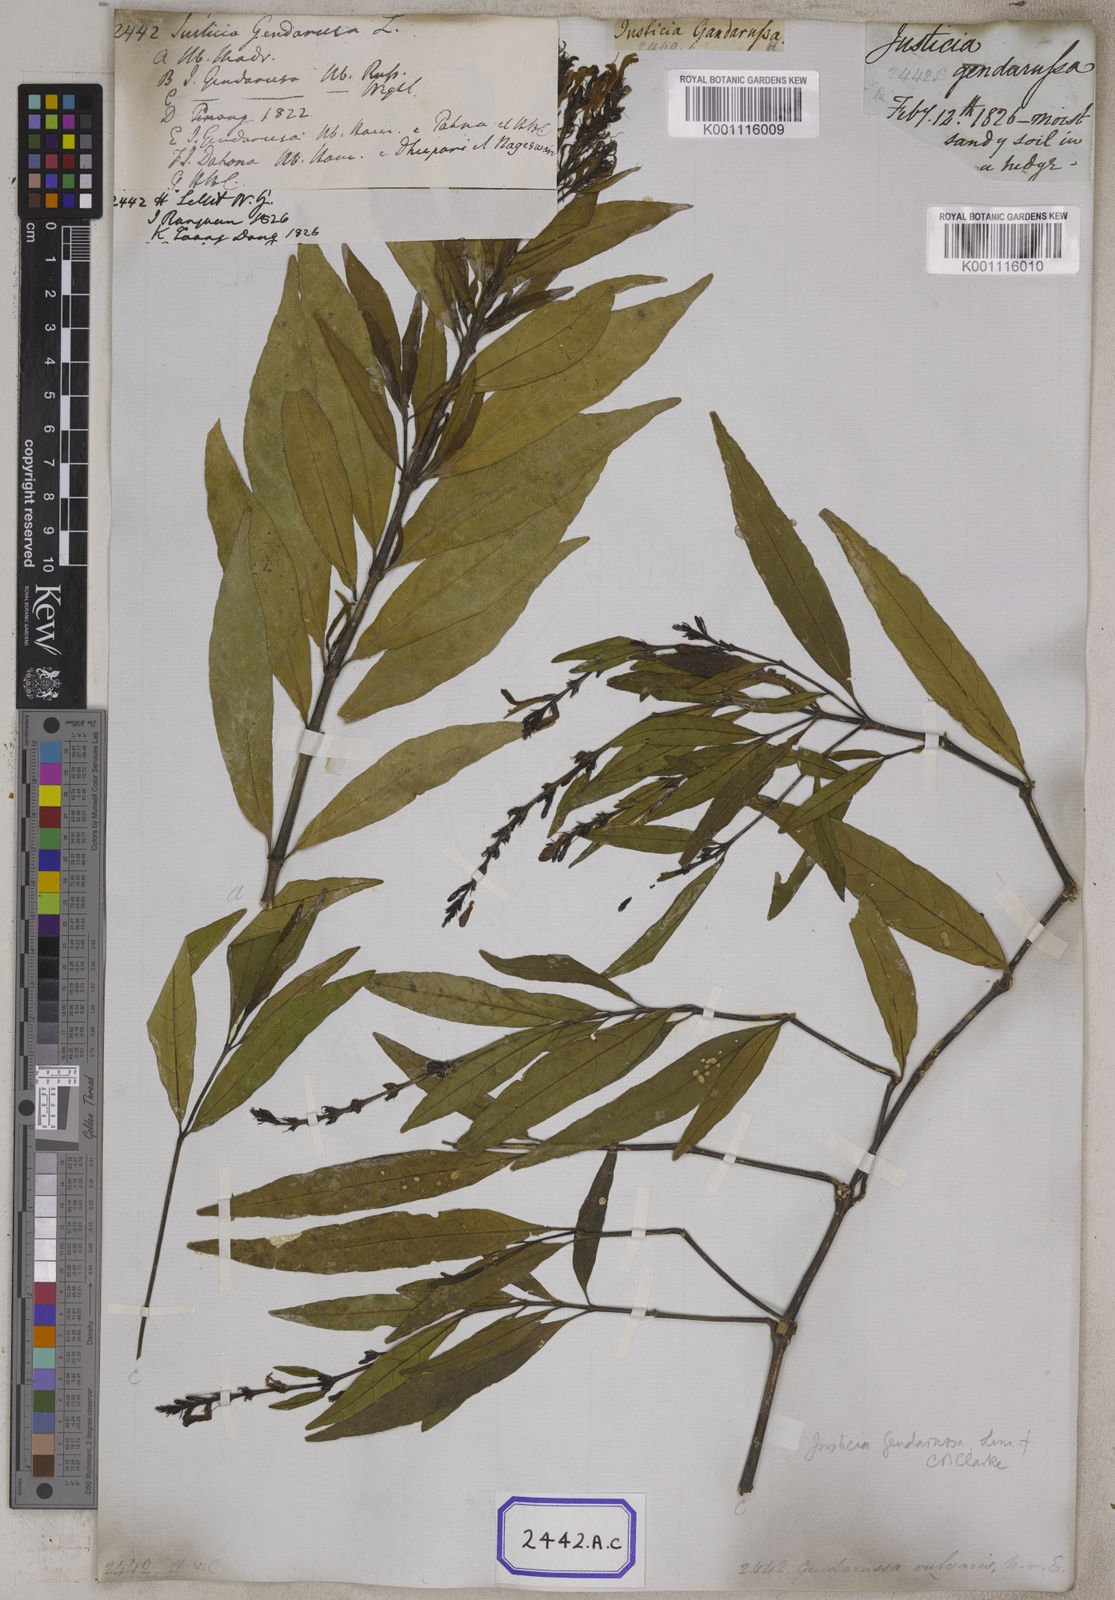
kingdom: Plantae
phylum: Tracheophyta
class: Magnoliopsida
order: Lamiales
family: Acanthaceae
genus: Justicia
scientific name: Justicia
